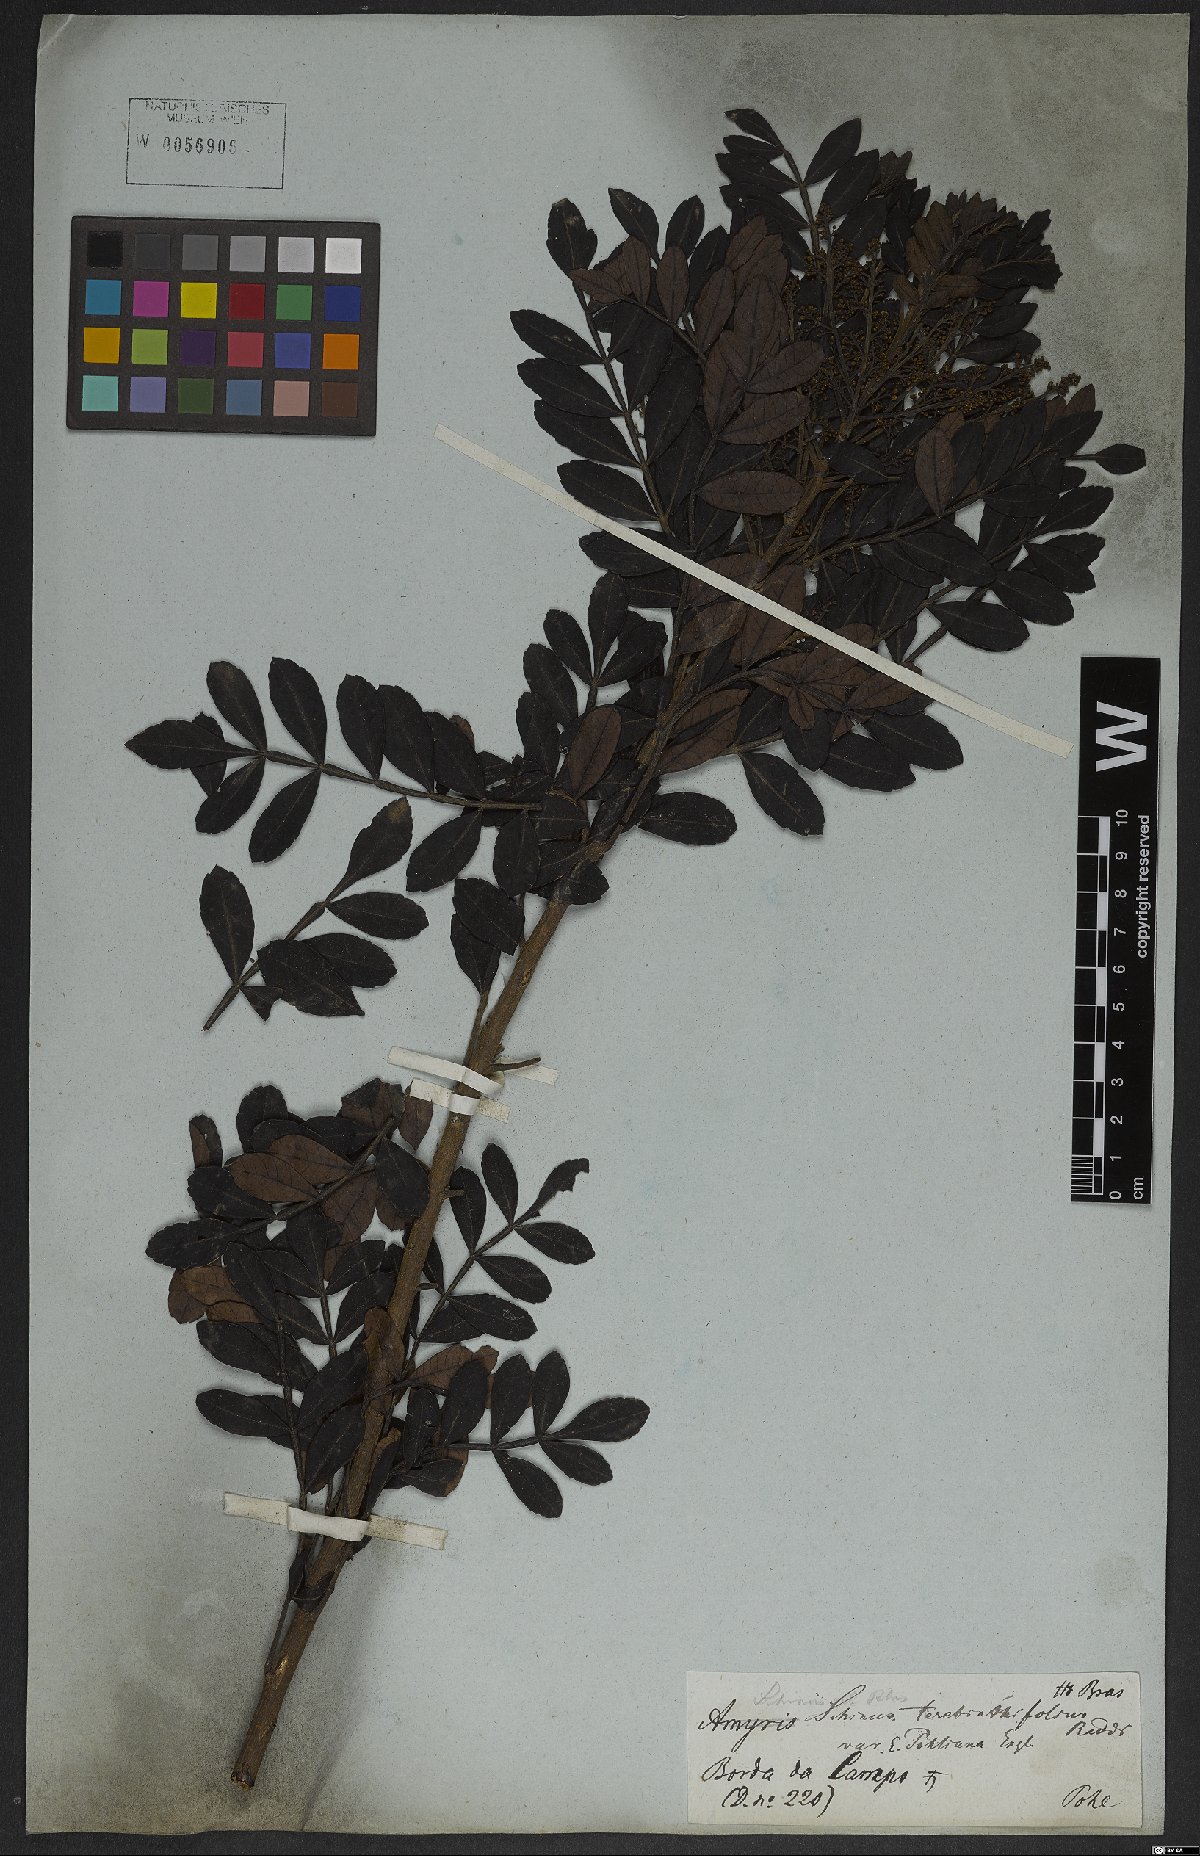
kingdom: Plantae
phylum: Tracheophyta
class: Magnoliopsida
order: Sapindales
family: Anacardiaceae
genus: Schinus
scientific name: Schinus terebinthifolia
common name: Brazilian peppertree
